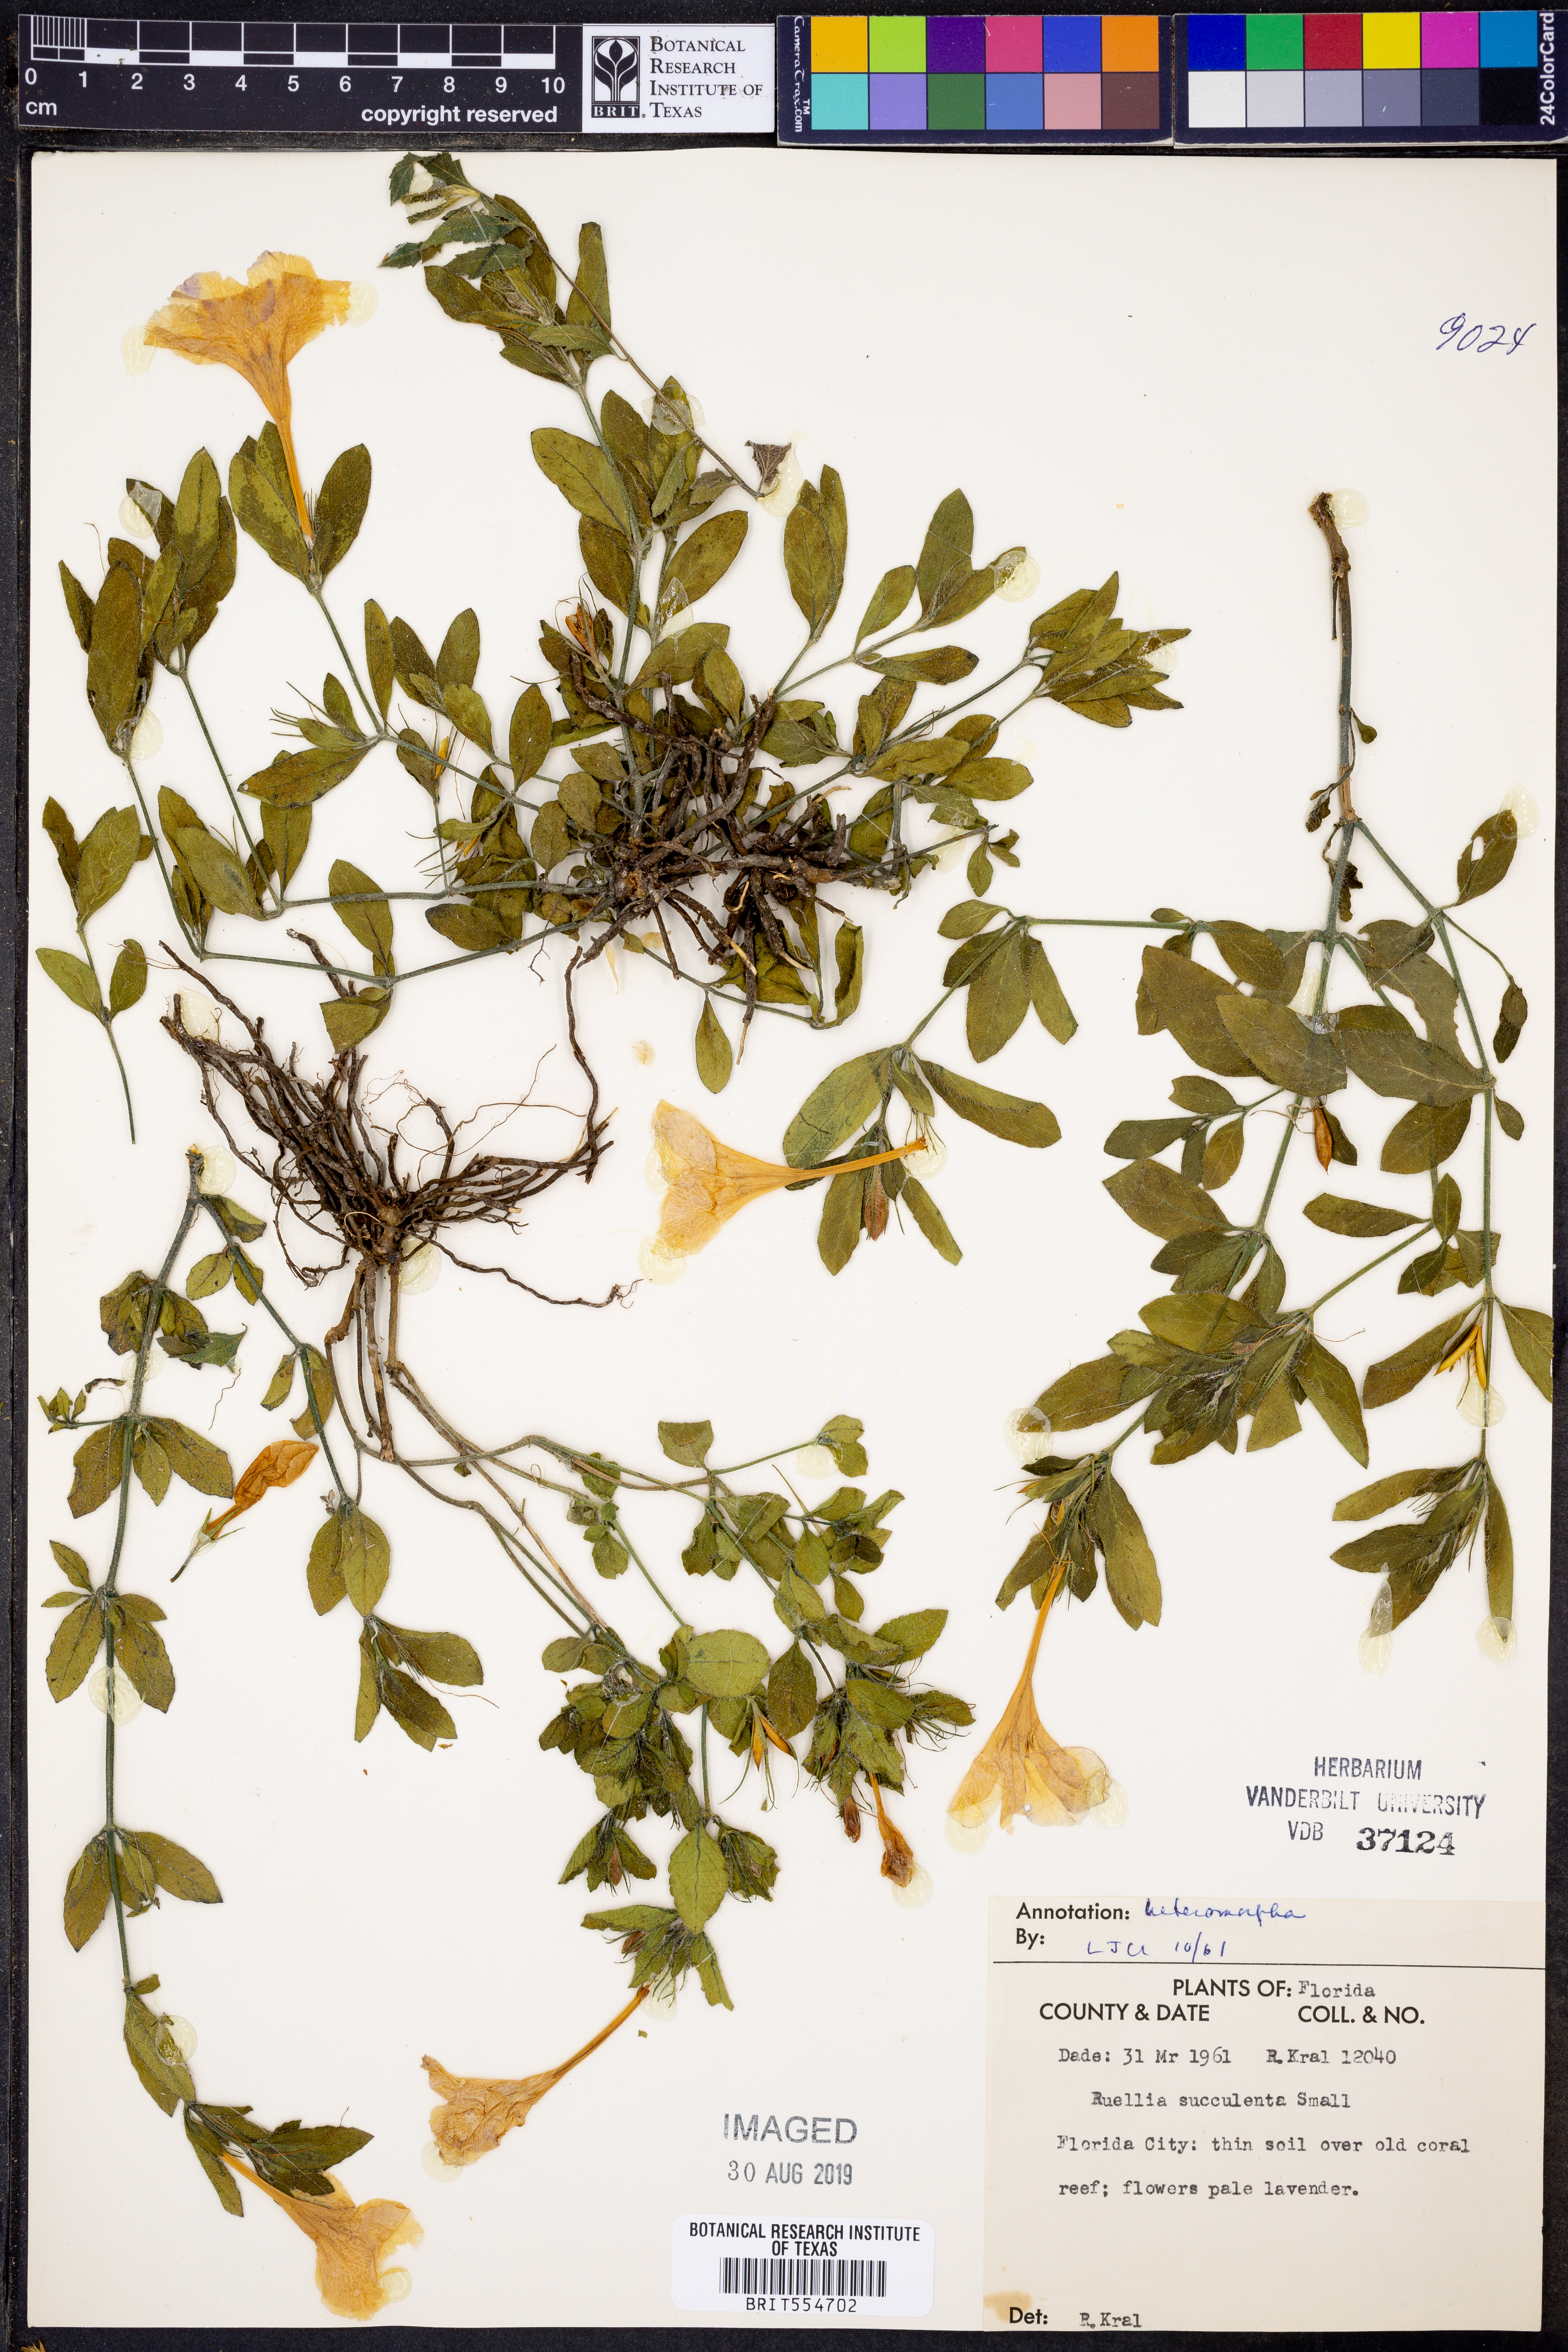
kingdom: Plantae
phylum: Tracheophyta
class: Magnoliopsida
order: Lamiales
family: Acanthaceae
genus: Ruellia
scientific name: Ruellia caroliniensis
